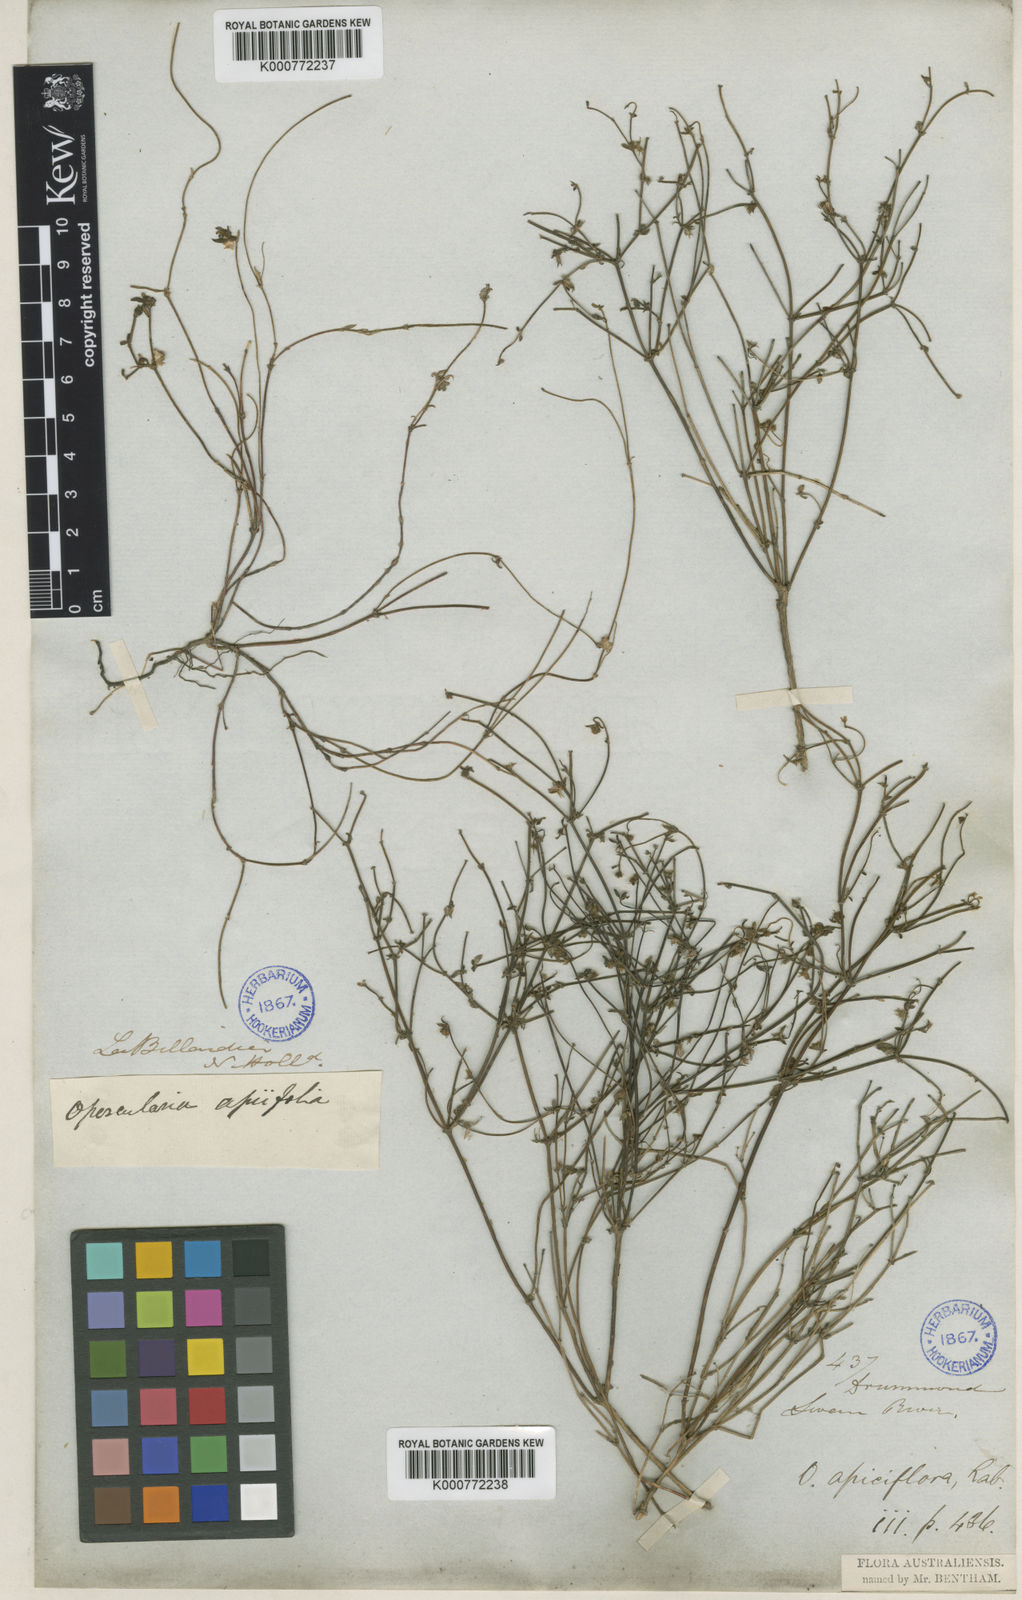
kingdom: Plantae
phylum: Tracheophyta
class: Magnoliopsida
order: Gentianales
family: Rubiaceae
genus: Opercularia
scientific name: Opercularia apiciflora
